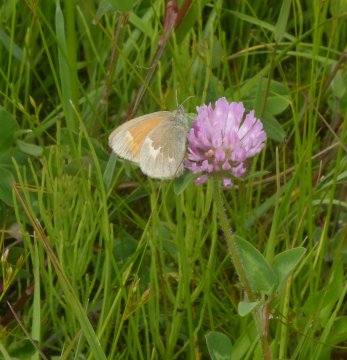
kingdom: Animalia
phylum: Arthropoda
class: Insecta
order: Lepidoptera
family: Nymphalidae
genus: Coenonympha
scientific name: Coenonympha tullia
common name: Large Heath
